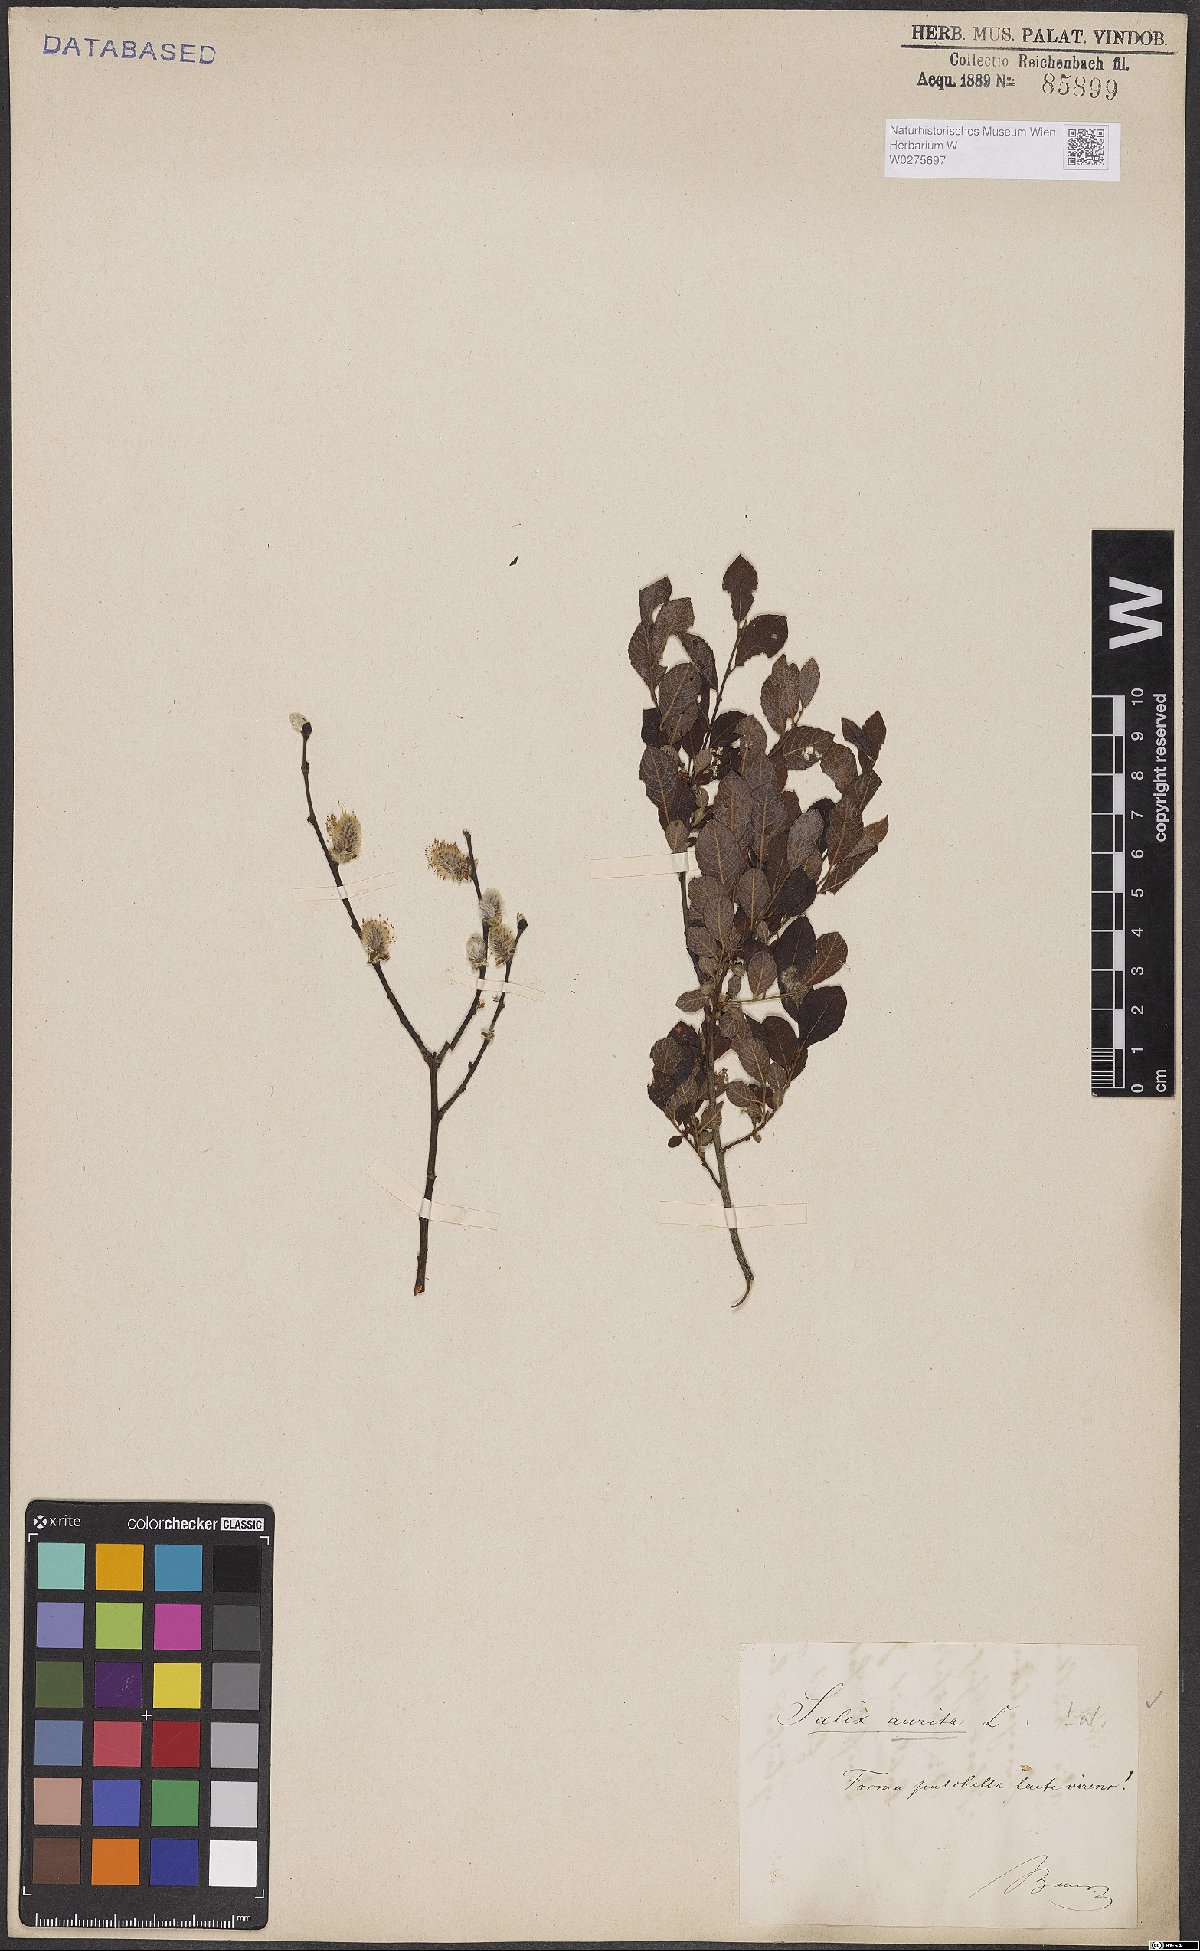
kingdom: Plantae
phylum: Tracheophyta
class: Magnoliopsida
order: Malpighiales
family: Salicaceae
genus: Salix
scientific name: Salix aurita
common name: Eared willow
